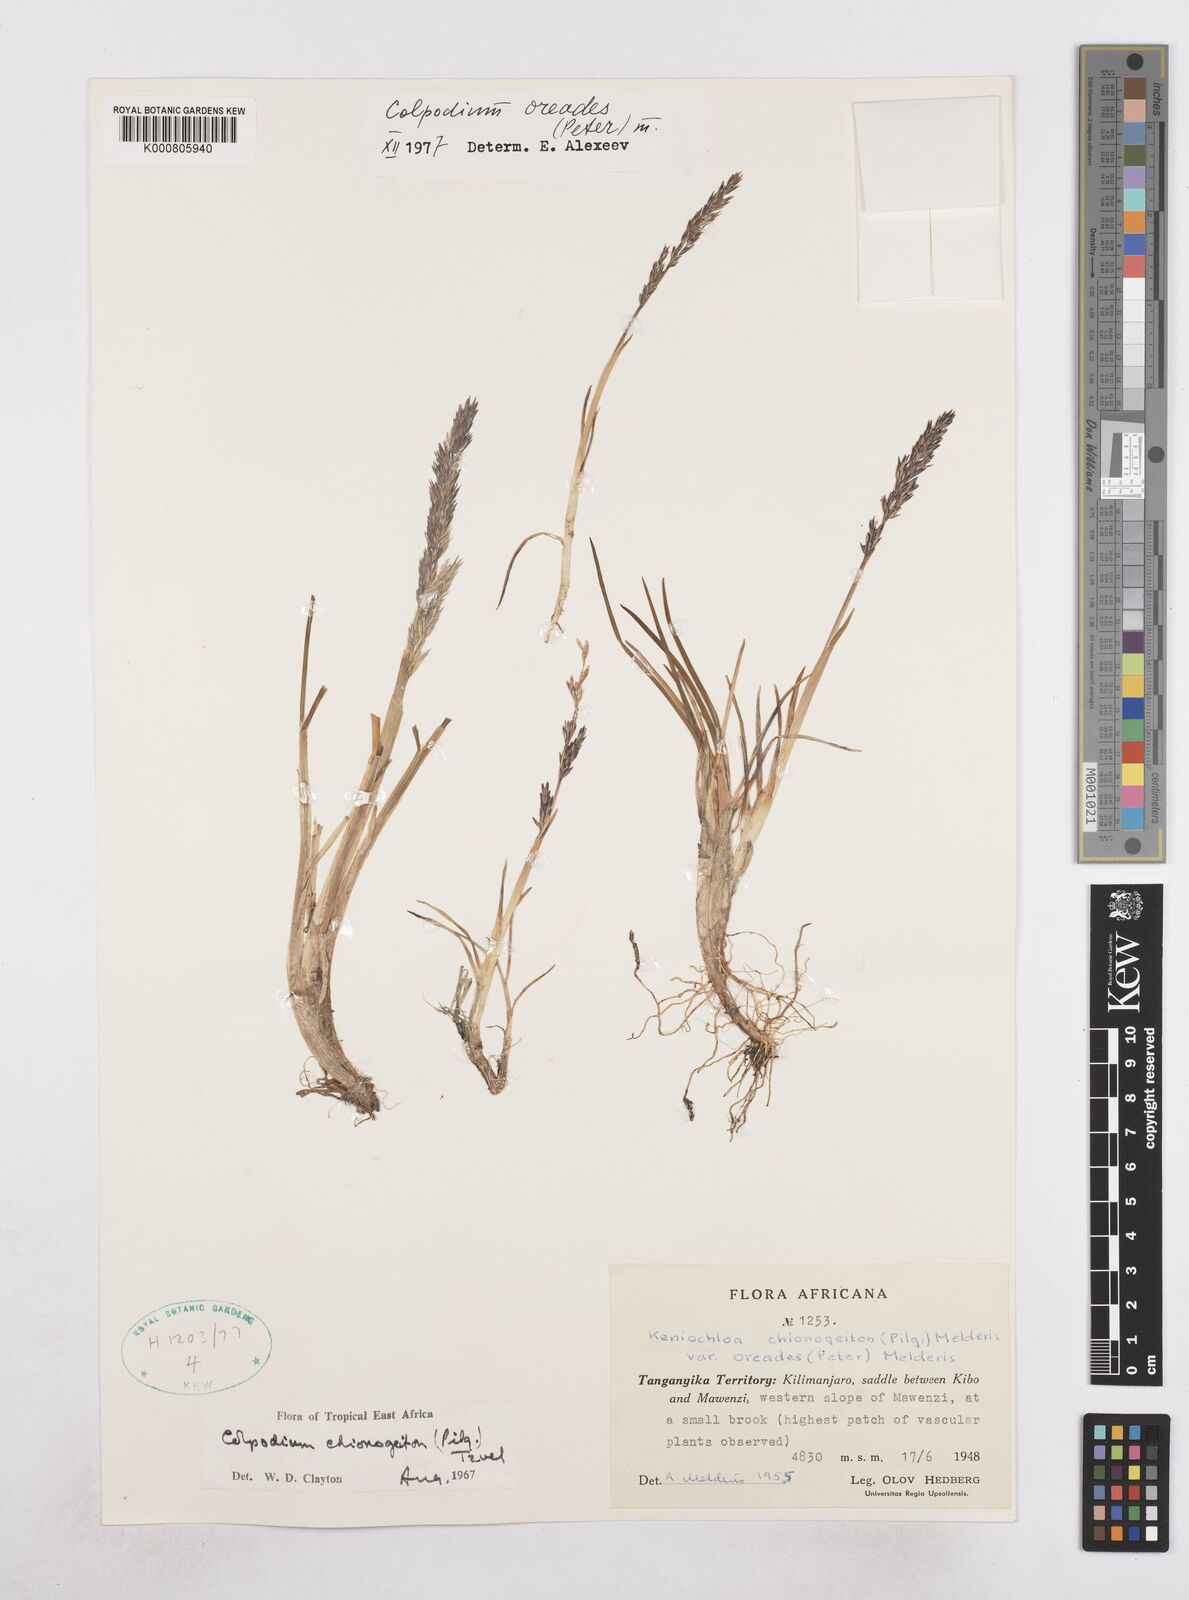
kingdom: Plantae
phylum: Tracheophyta
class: Liliopsida
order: Poales
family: Poaceae
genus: Colpodium
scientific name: Colpodium oreades
